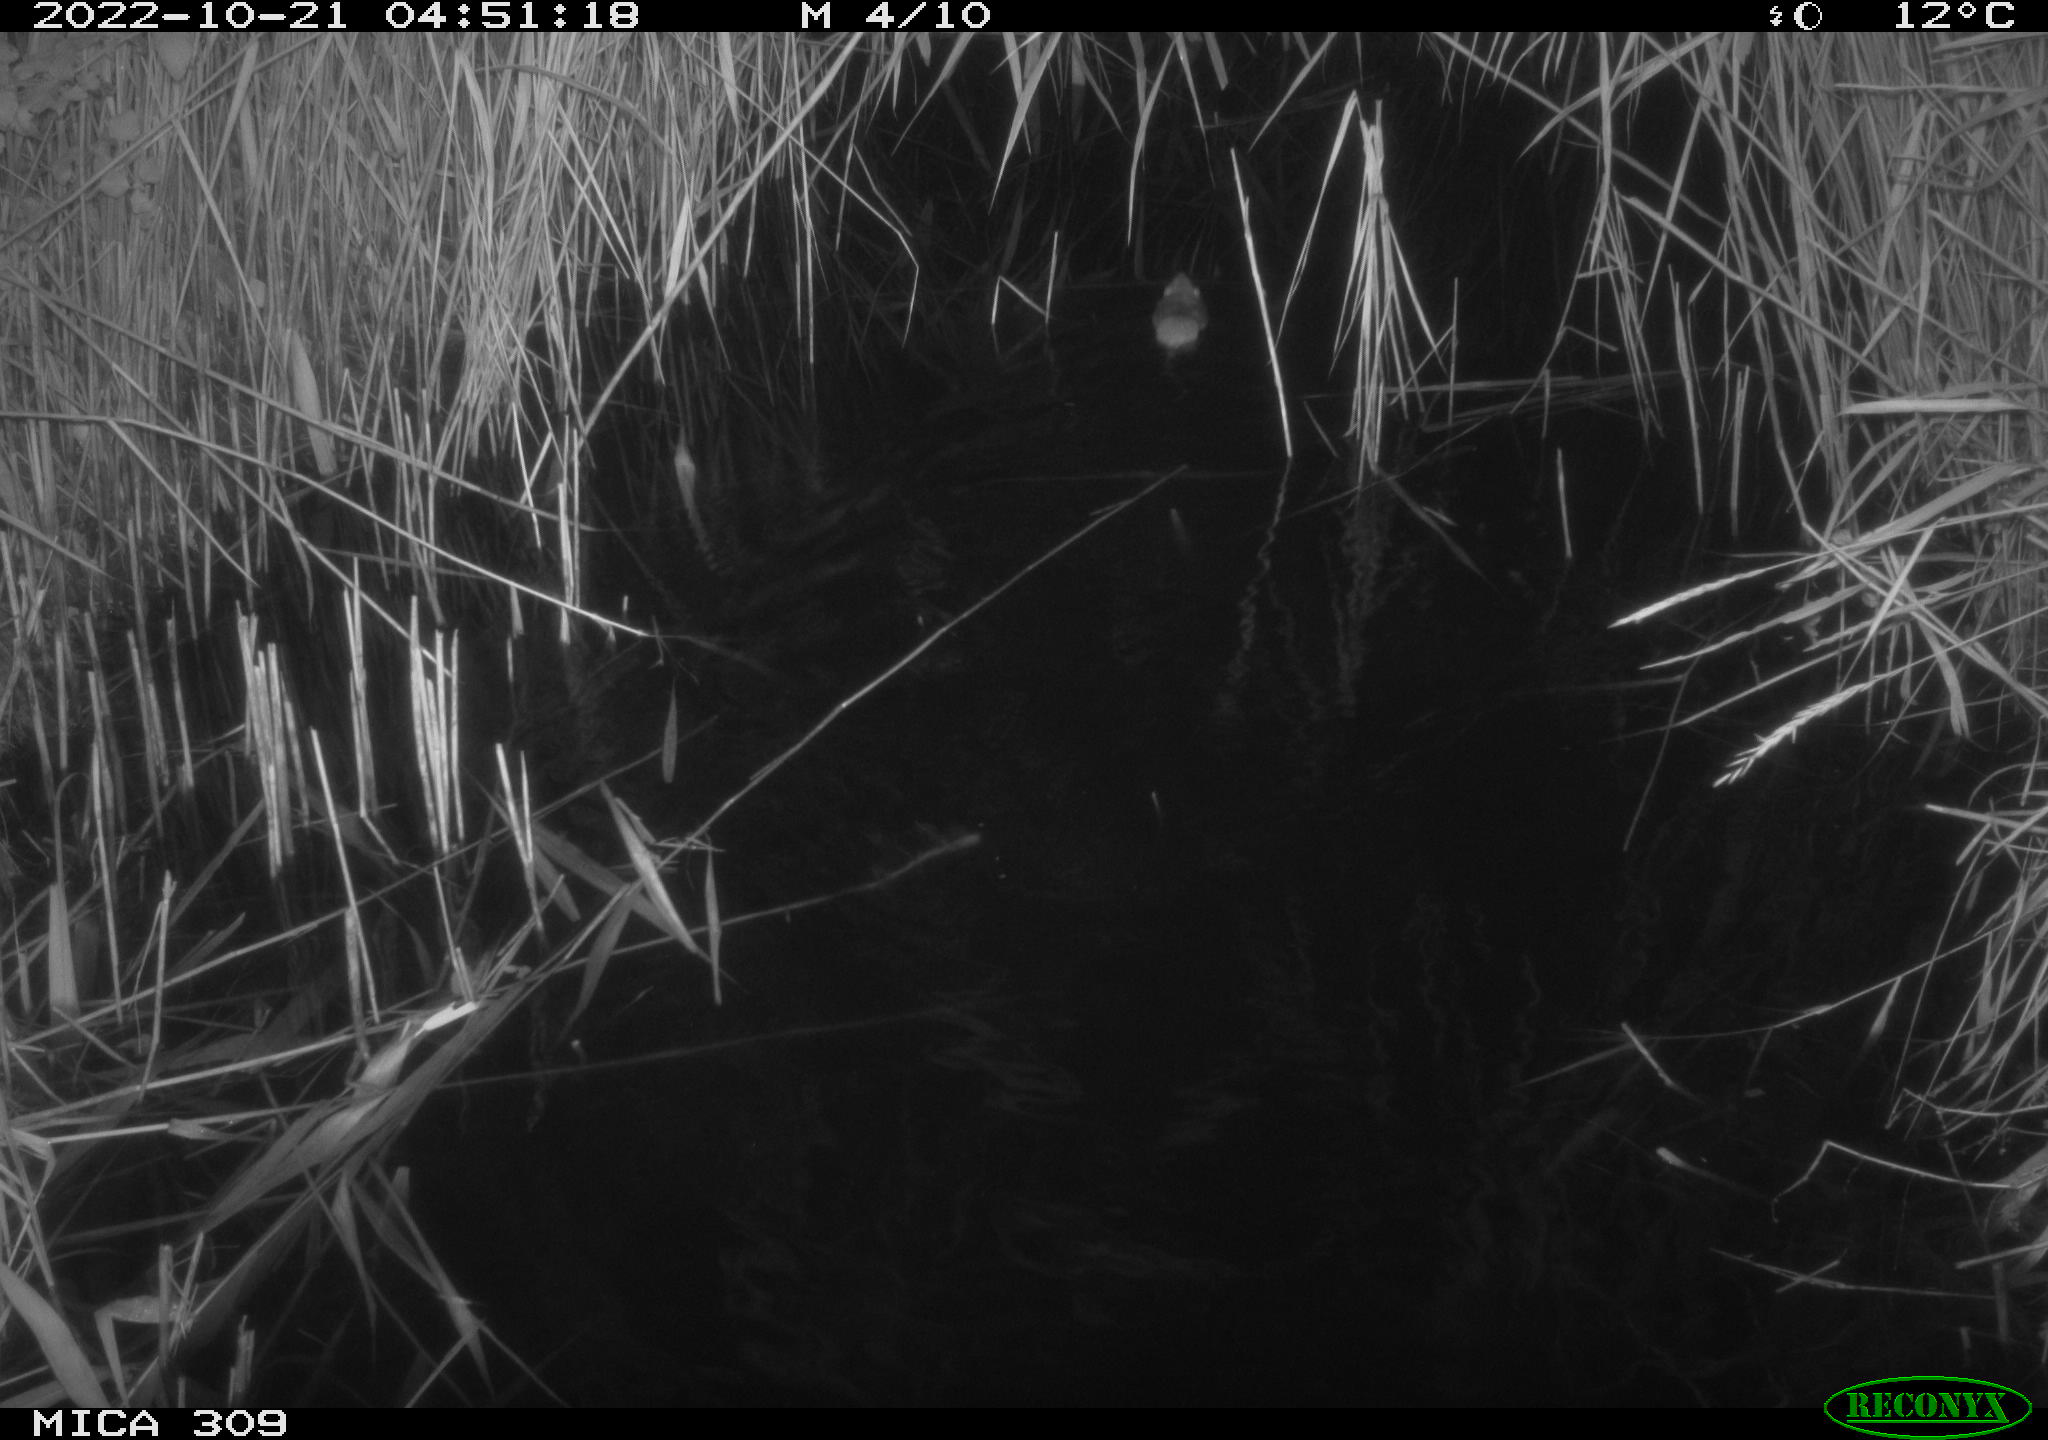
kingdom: Animalia
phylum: Chordata
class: Mammalia
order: Rodentia
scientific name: Rodentia
